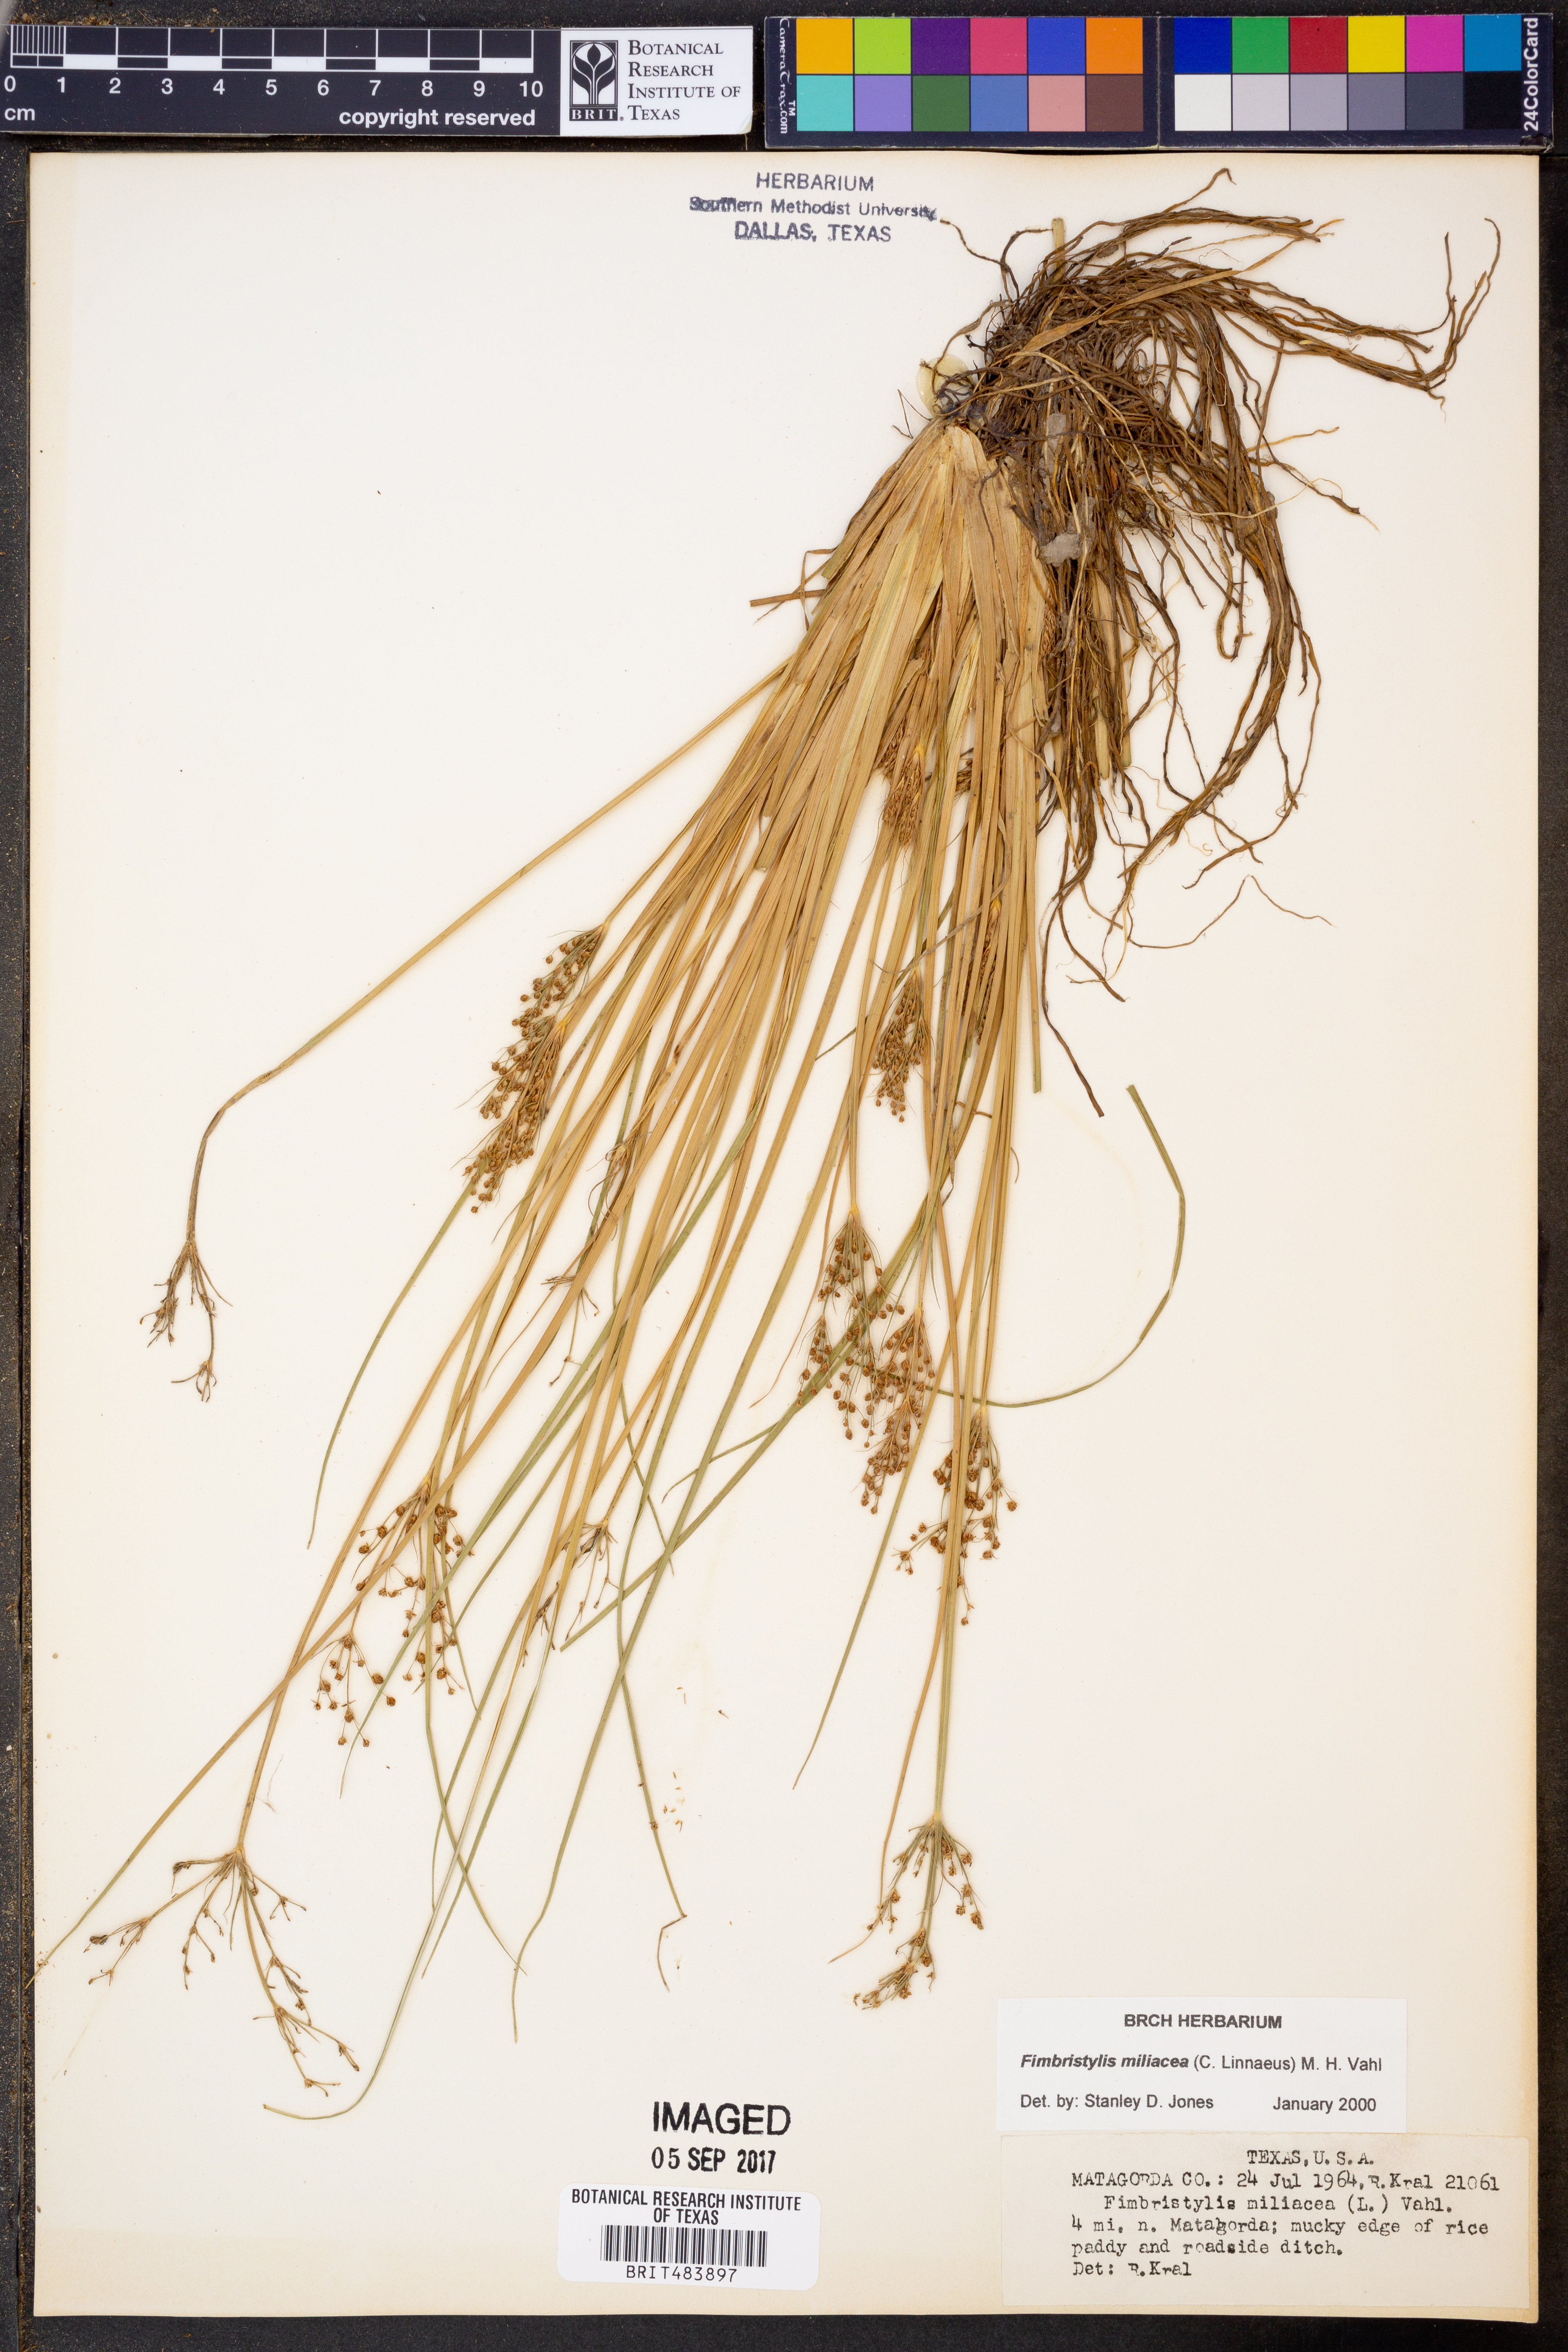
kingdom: Plantae
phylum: Tracheophyta
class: Liliopsida
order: Poales
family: Cyperaceae
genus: Fimbristylis
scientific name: Fimbristylis quinquangularis
